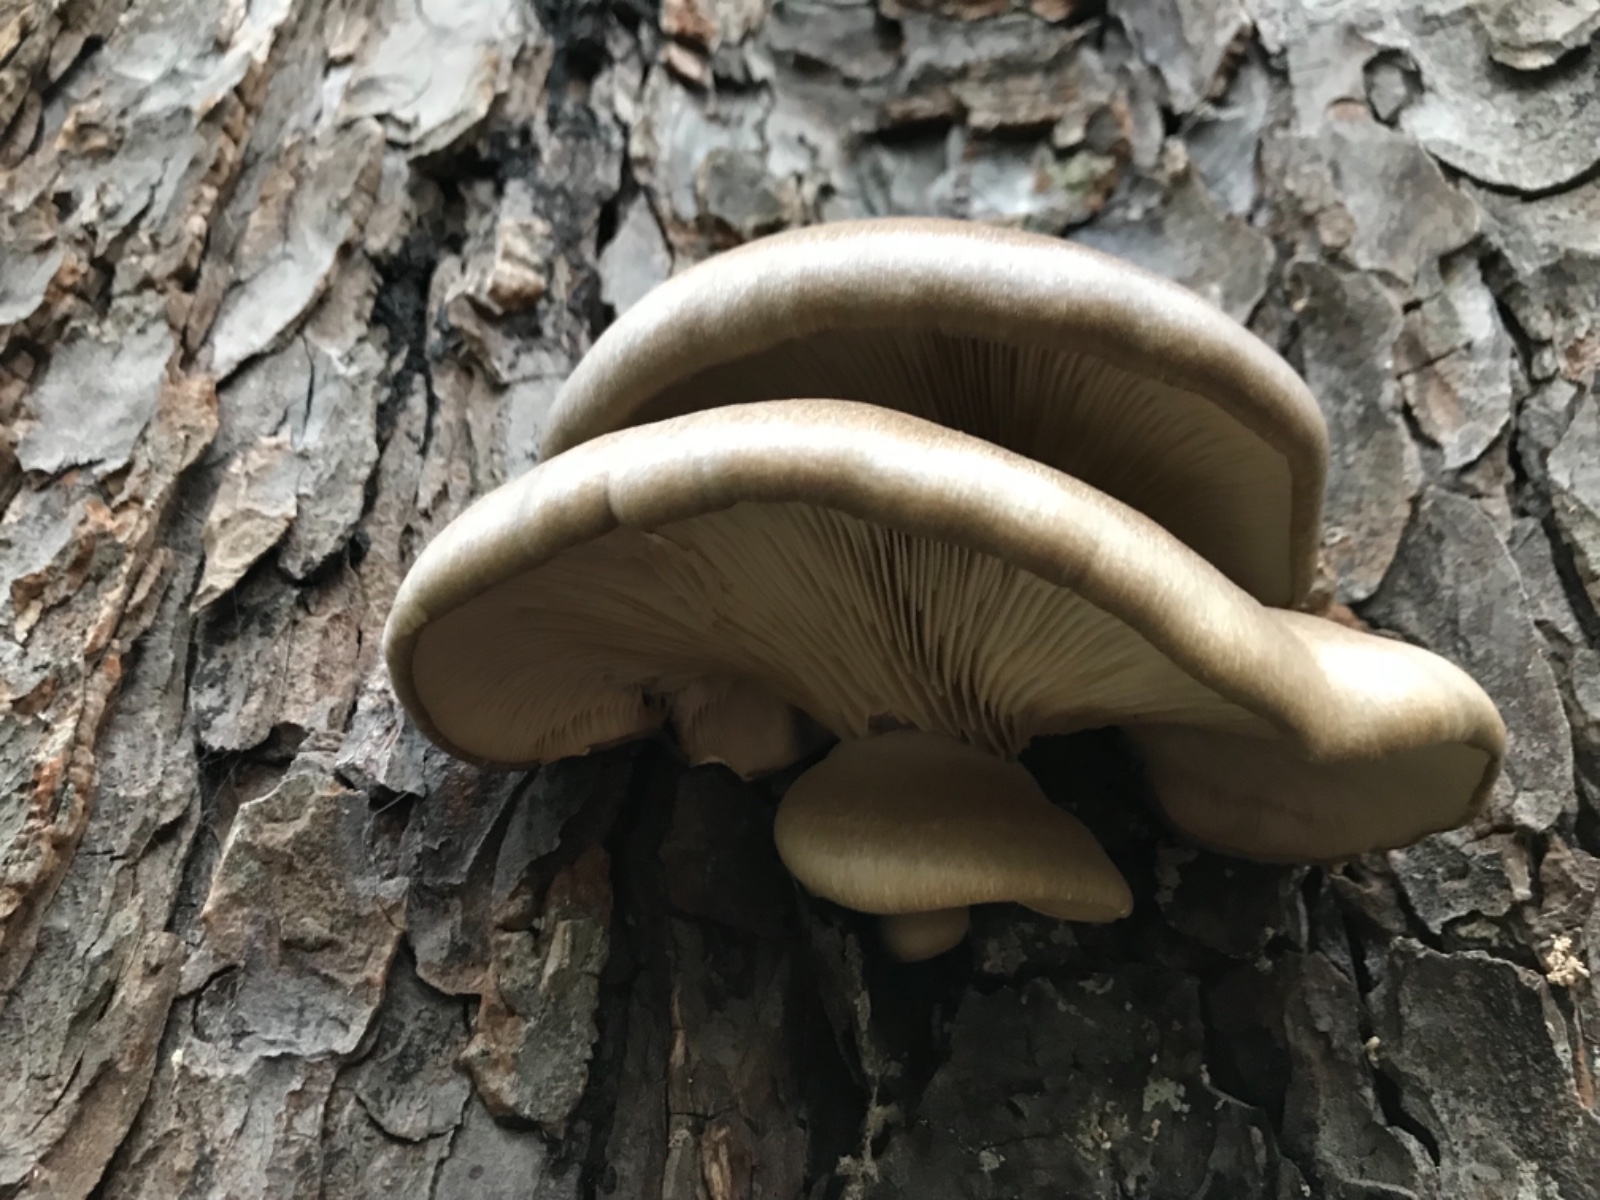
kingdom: Fungi
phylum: Basidiomycota
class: Agaricomycetes
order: Agaricales
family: Pleurotaceae
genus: Pleurotus
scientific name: Pleurotus ostreatus
